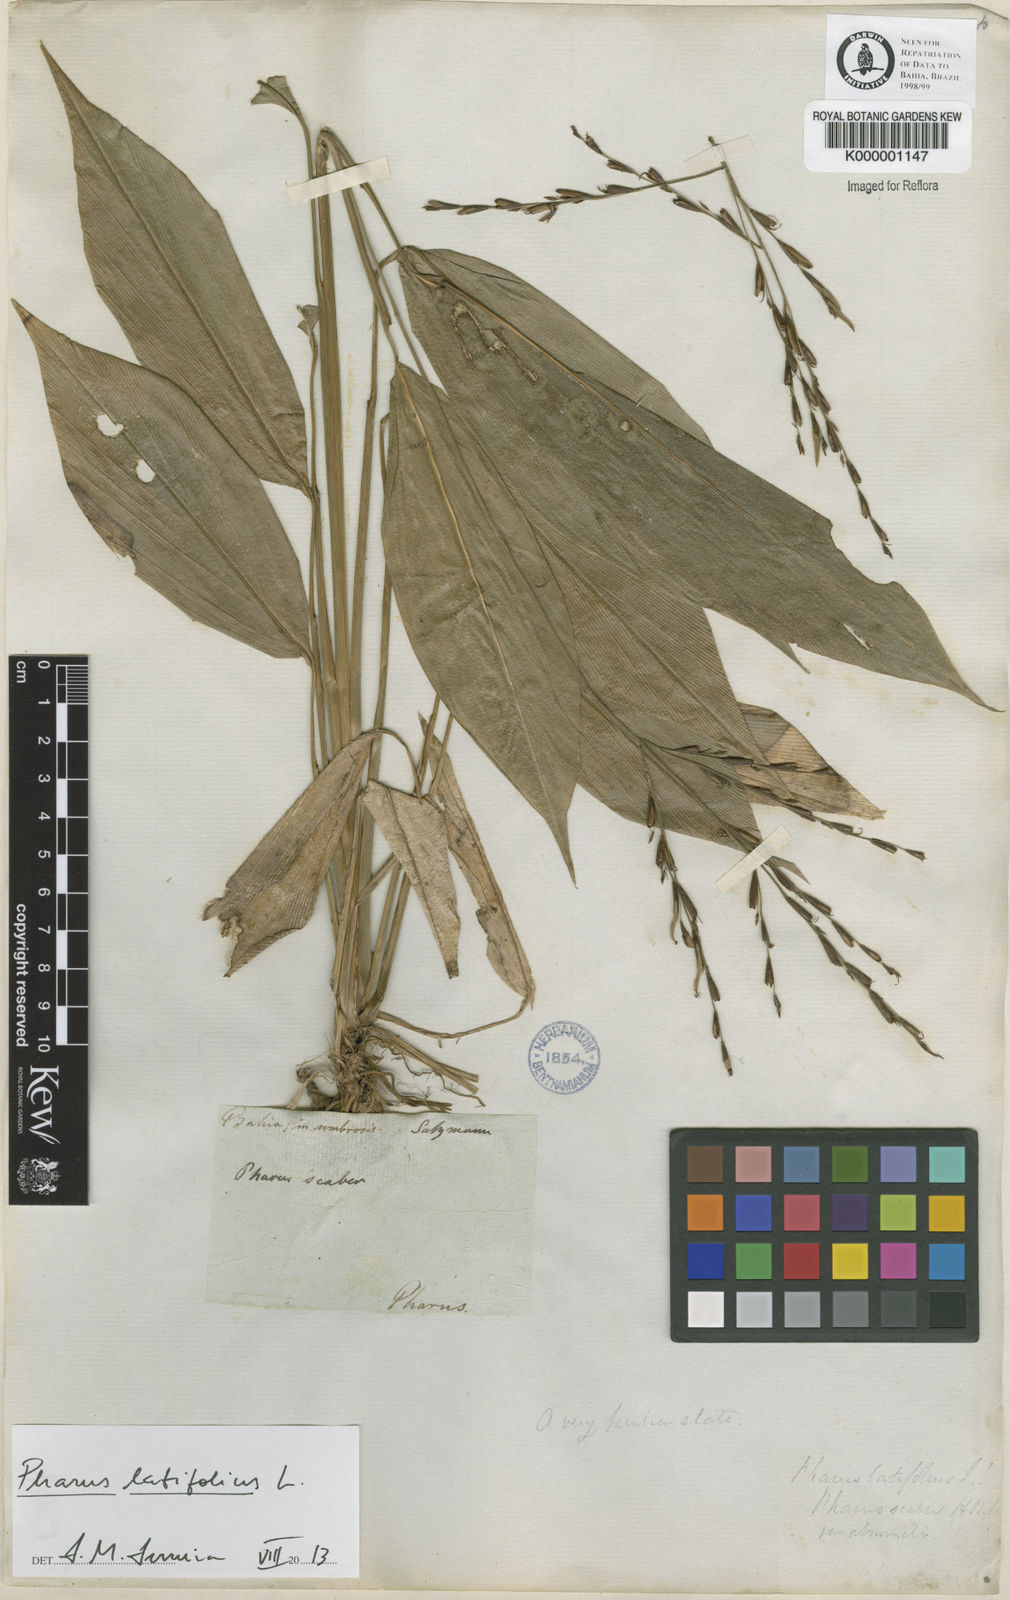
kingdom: Plantae
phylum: Tracheophyta
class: Liliopsida
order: Poales
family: Poaceae
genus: Pharus
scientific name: Pharus latifolius
